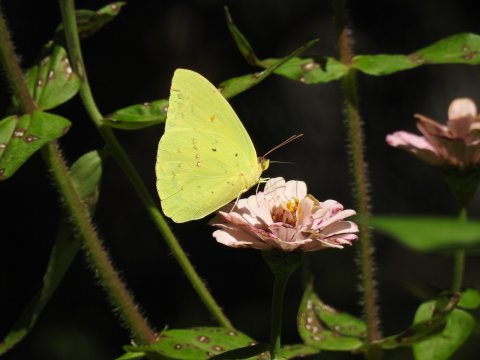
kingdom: Animalia
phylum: Arthropoda
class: Insecta
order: Lepidoptera
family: Pieridae
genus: Phoebis
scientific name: Phoebis sennae
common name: Cloudless Sulphur
